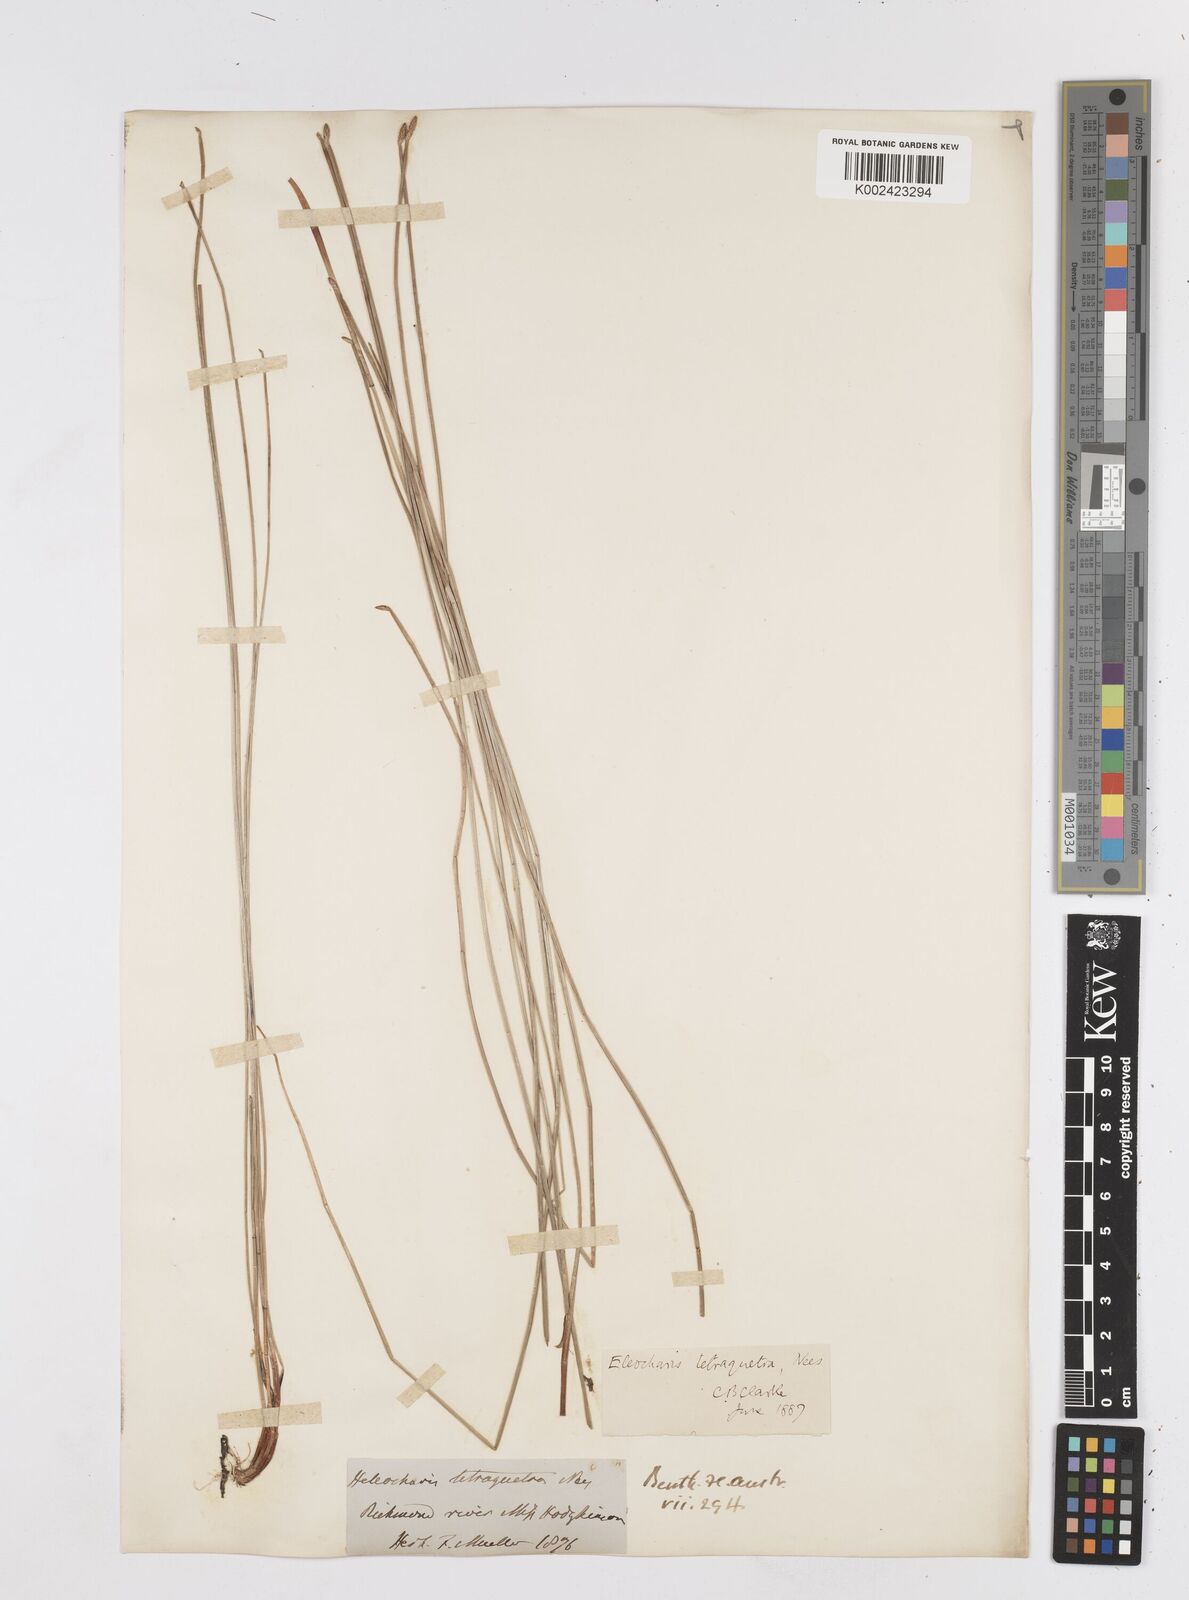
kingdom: Plantae
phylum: Tracheophyta
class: Liliopsida
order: Poales
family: Cyperaceae
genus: Eleocharis
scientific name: Eleocharis tetraquetra
